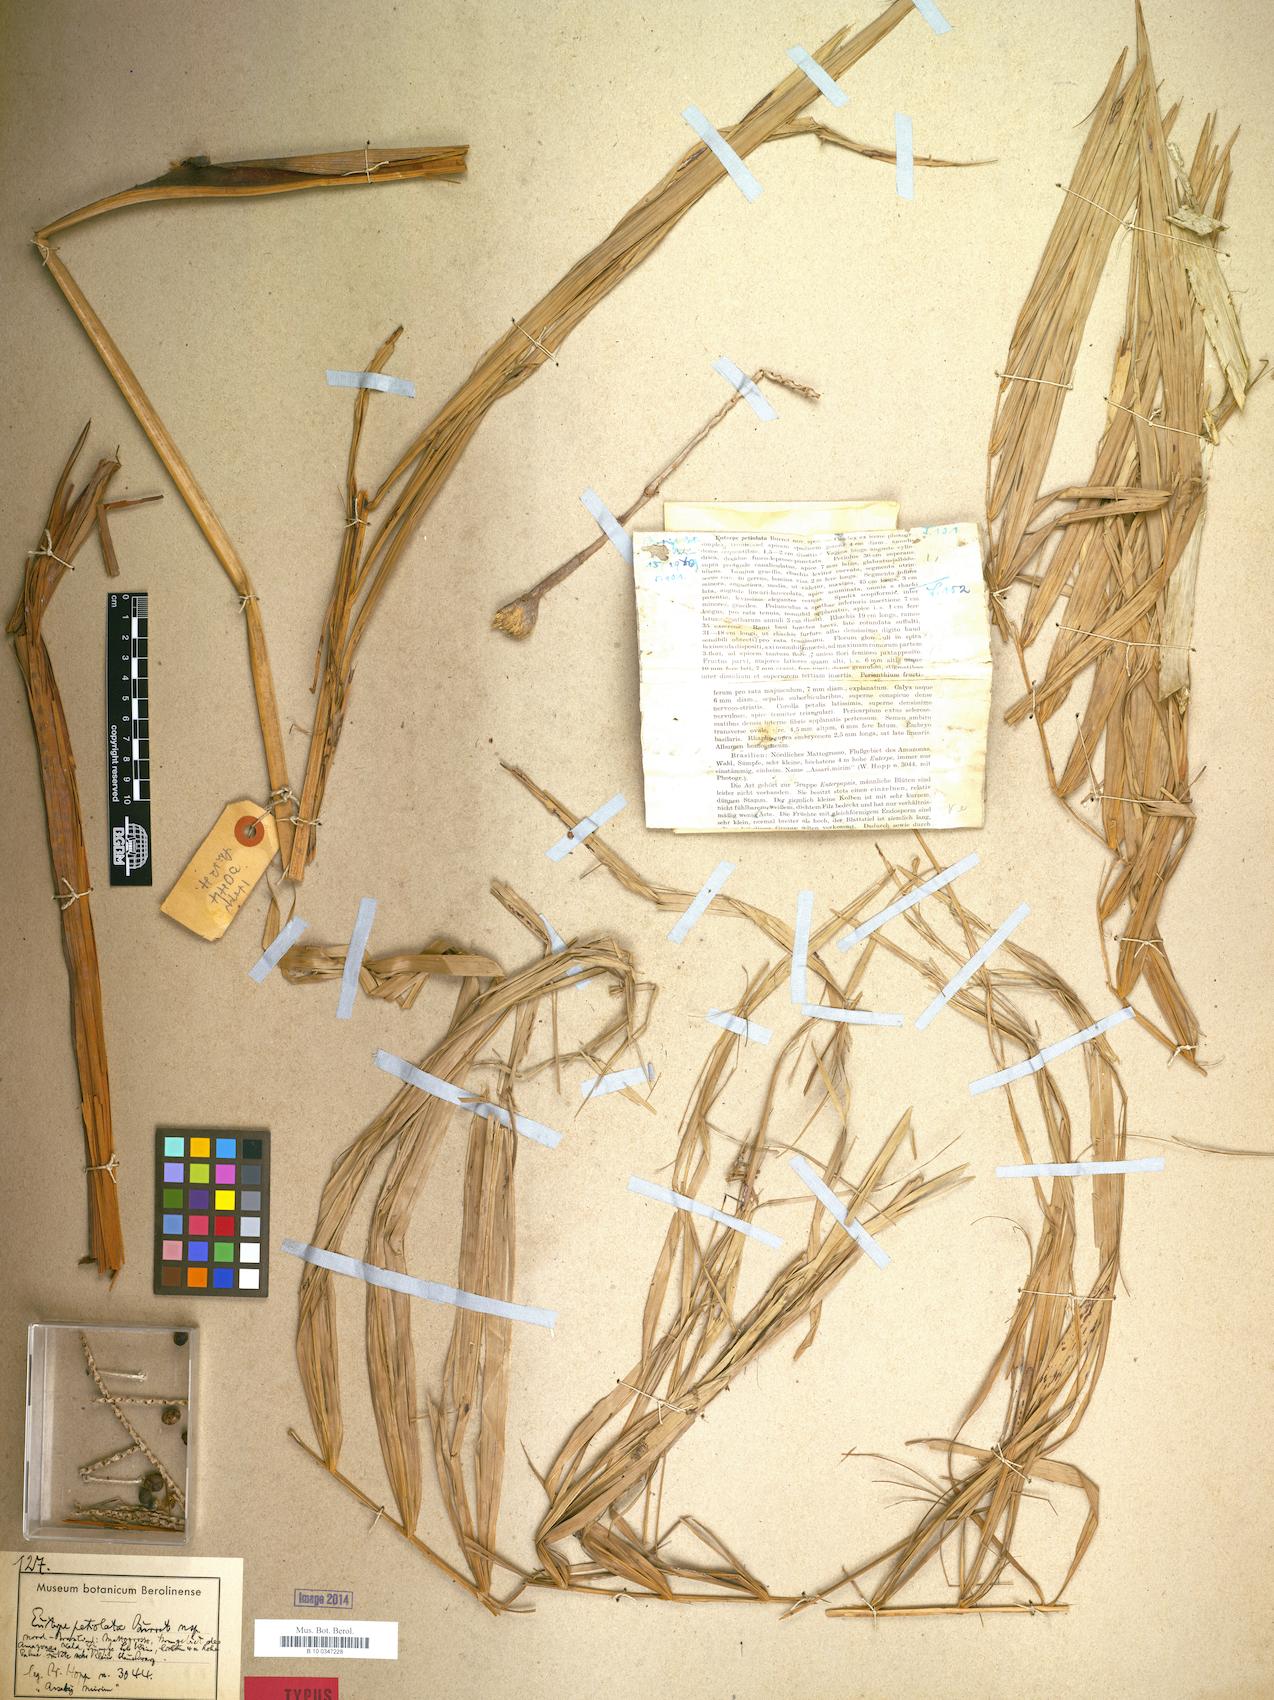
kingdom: Plantae
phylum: Tracheophyta
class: Liliopsida
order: Arecales
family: Arecaceae
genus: Euterpe
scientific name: Euterpe precatoria
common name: Mountain-cabbage
